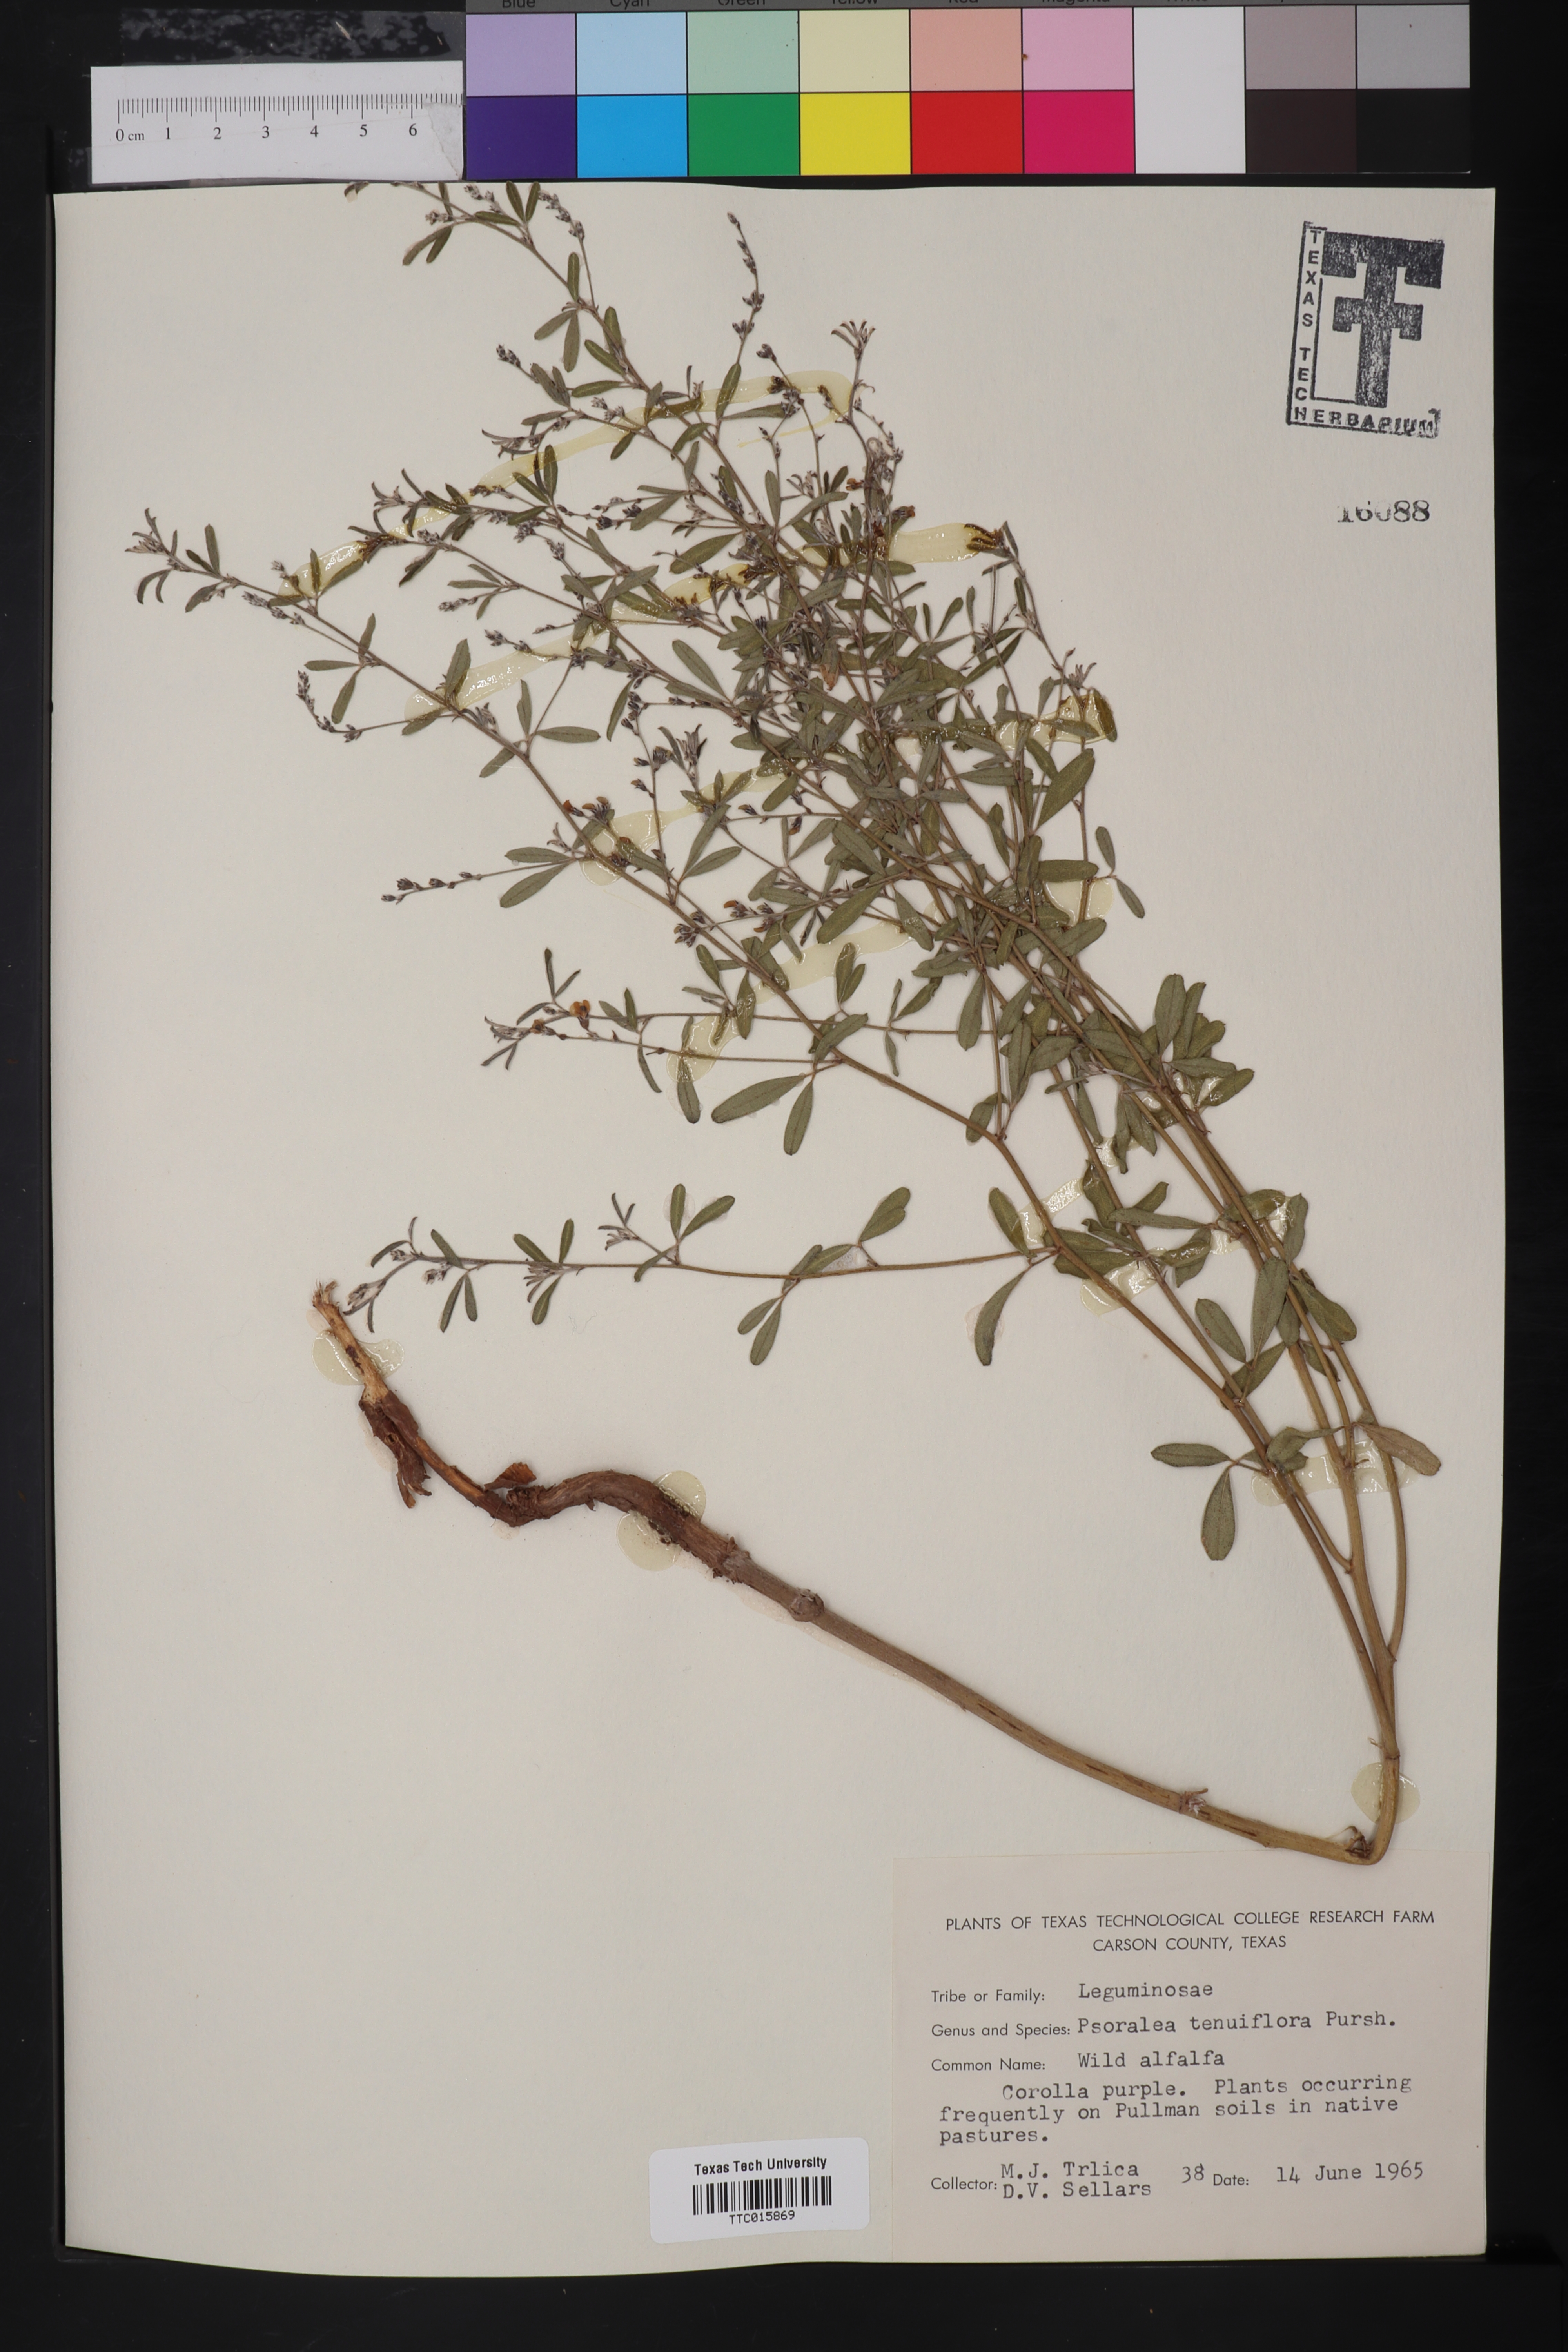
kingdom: Plantae
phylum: Tracheophyta
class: Magnoliopsida
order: Fabales
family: Fabaceae
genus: Pediomelum
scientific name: Pediomelum tenuiflorum
